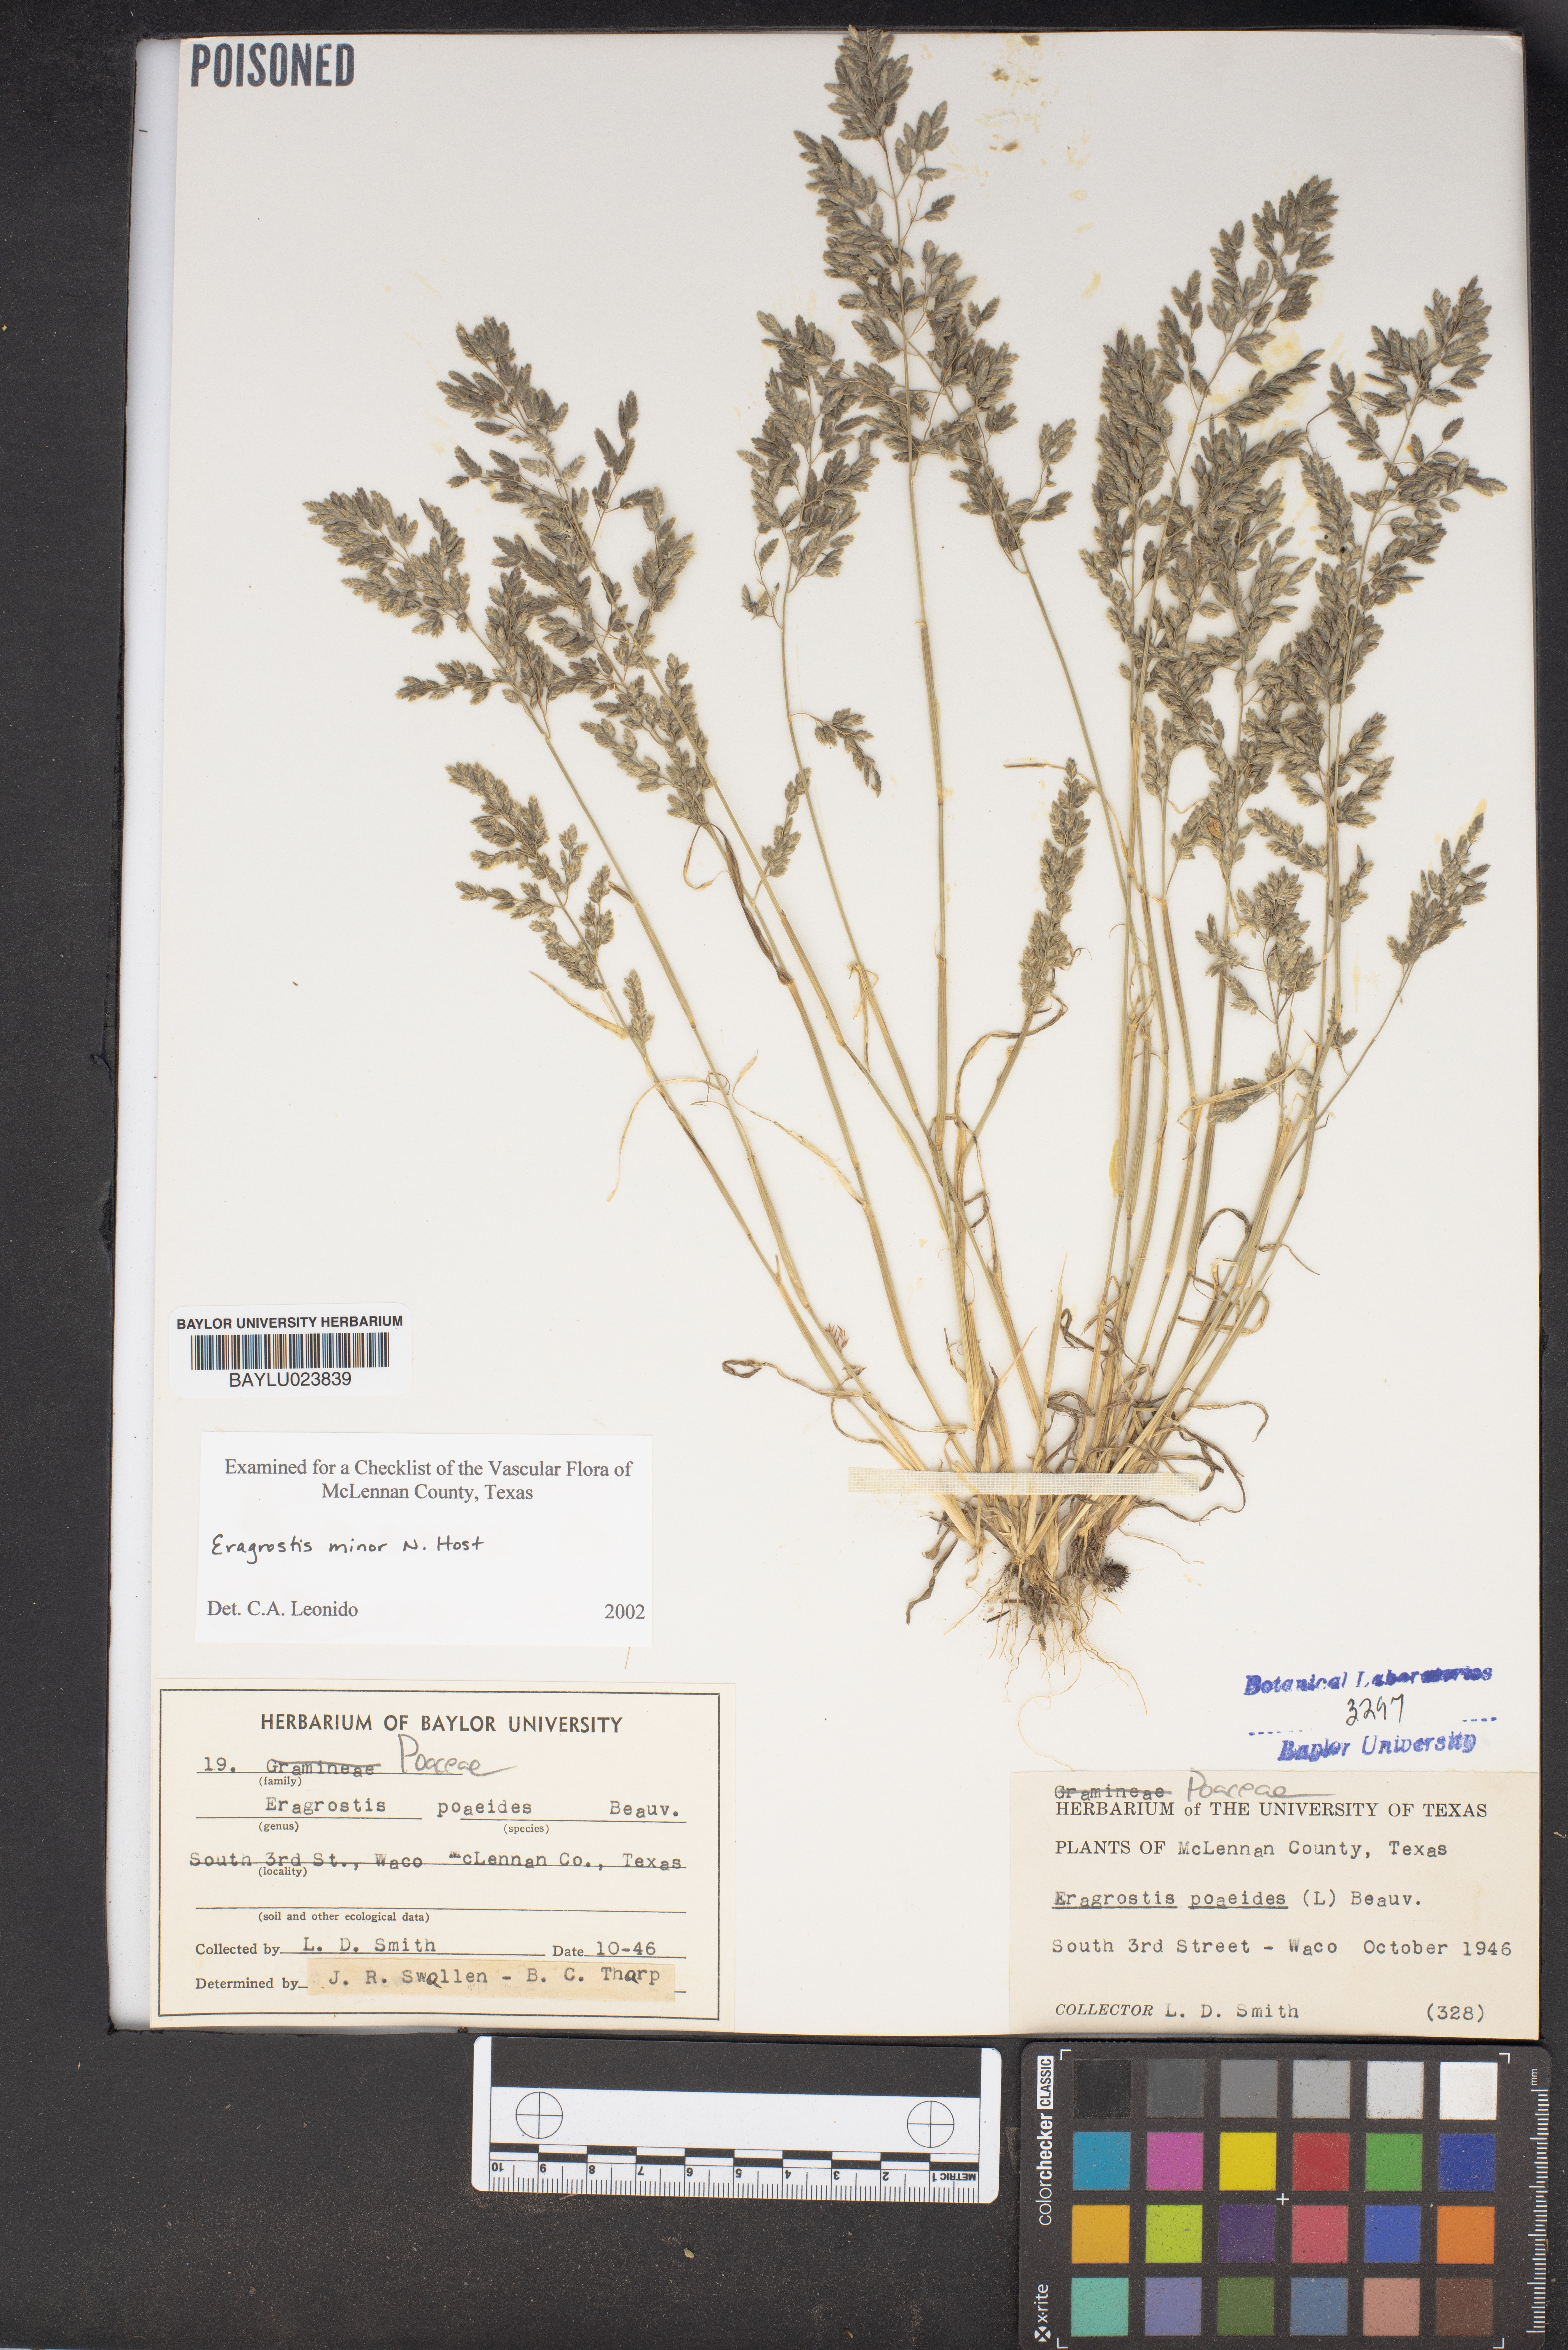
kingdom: Plantae
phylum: Tracheophyta
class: Liliopsida
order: Poales
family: Poaceae
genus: Eragrostis
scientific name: Eragrostis minor
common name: Small love-grass
